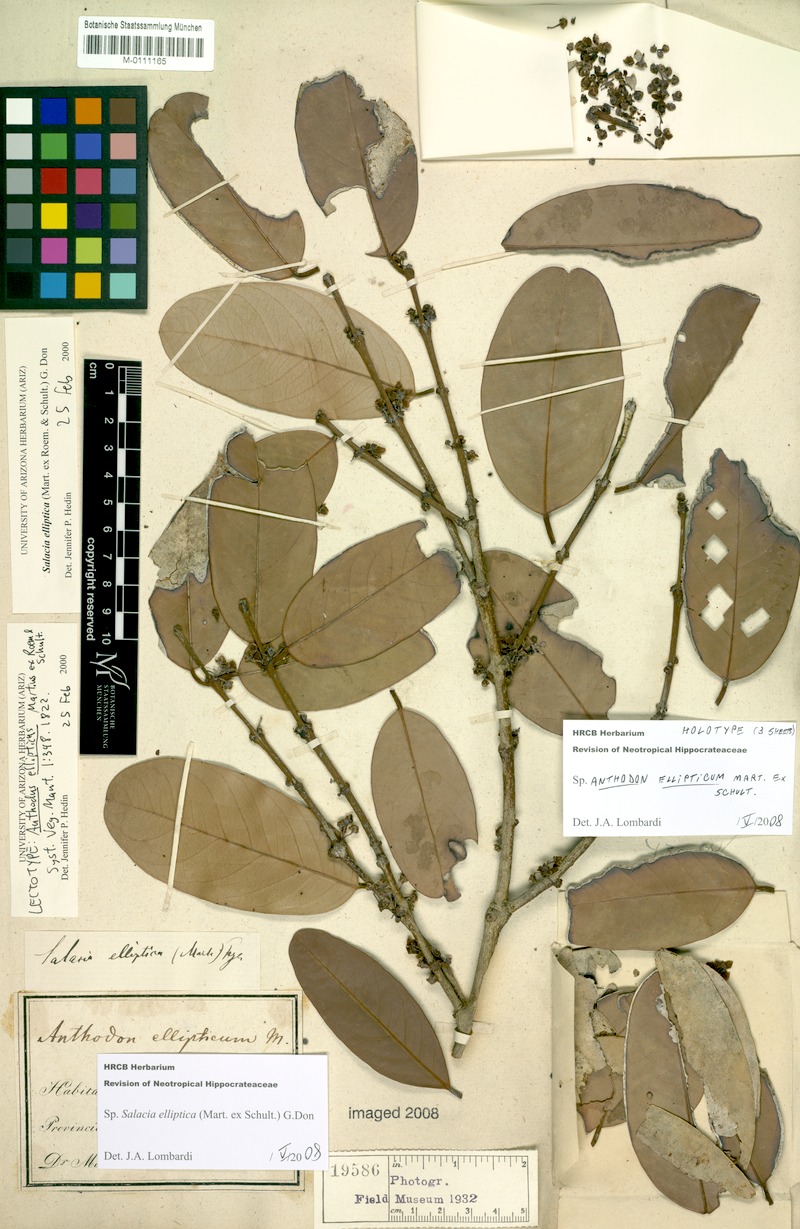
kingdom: Plantae
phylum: Tracheophyta
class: Magnoliopsida
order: Celastrales
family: Celastraceae
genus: Salacia
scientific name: Salacia elliptica
